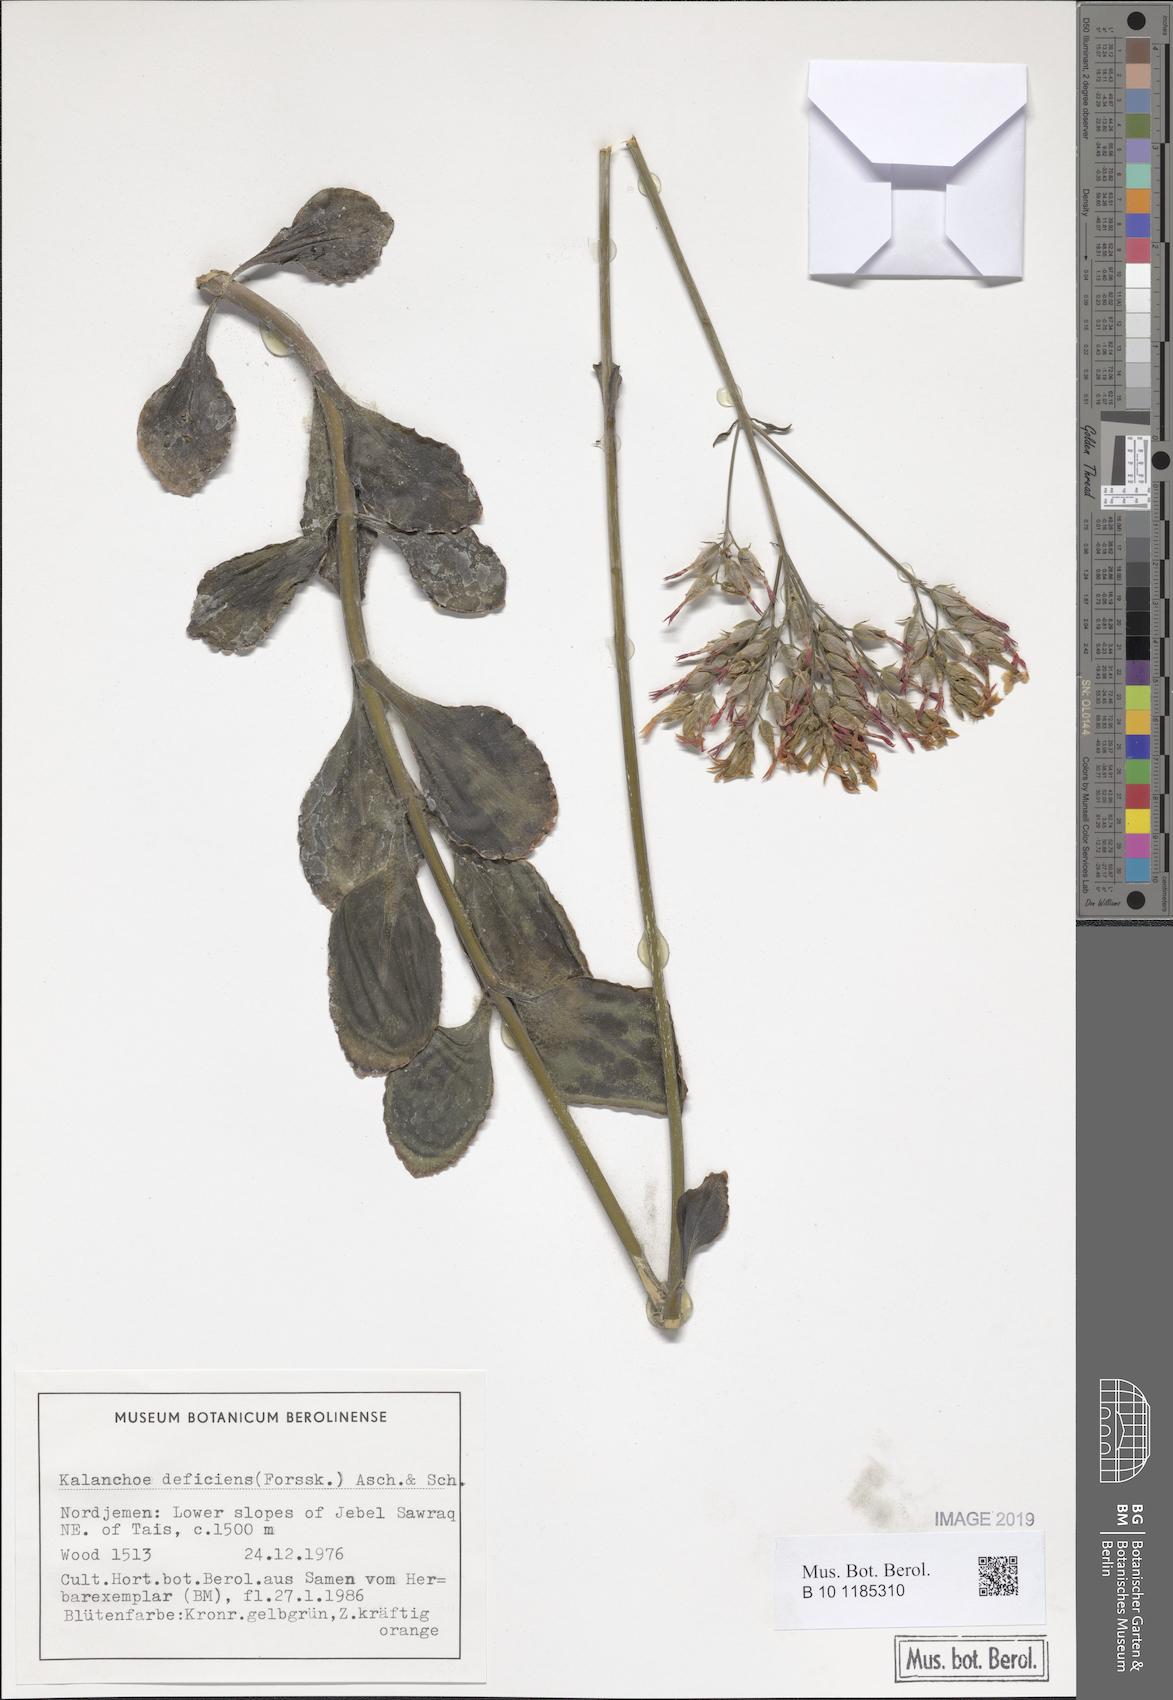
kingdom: Plantae
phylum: Tracheophyta
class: Magnoliopsida
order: Saxifragales
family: Crassulaceae
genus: Kalanchoe
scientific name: Kalanchoe deficiens
